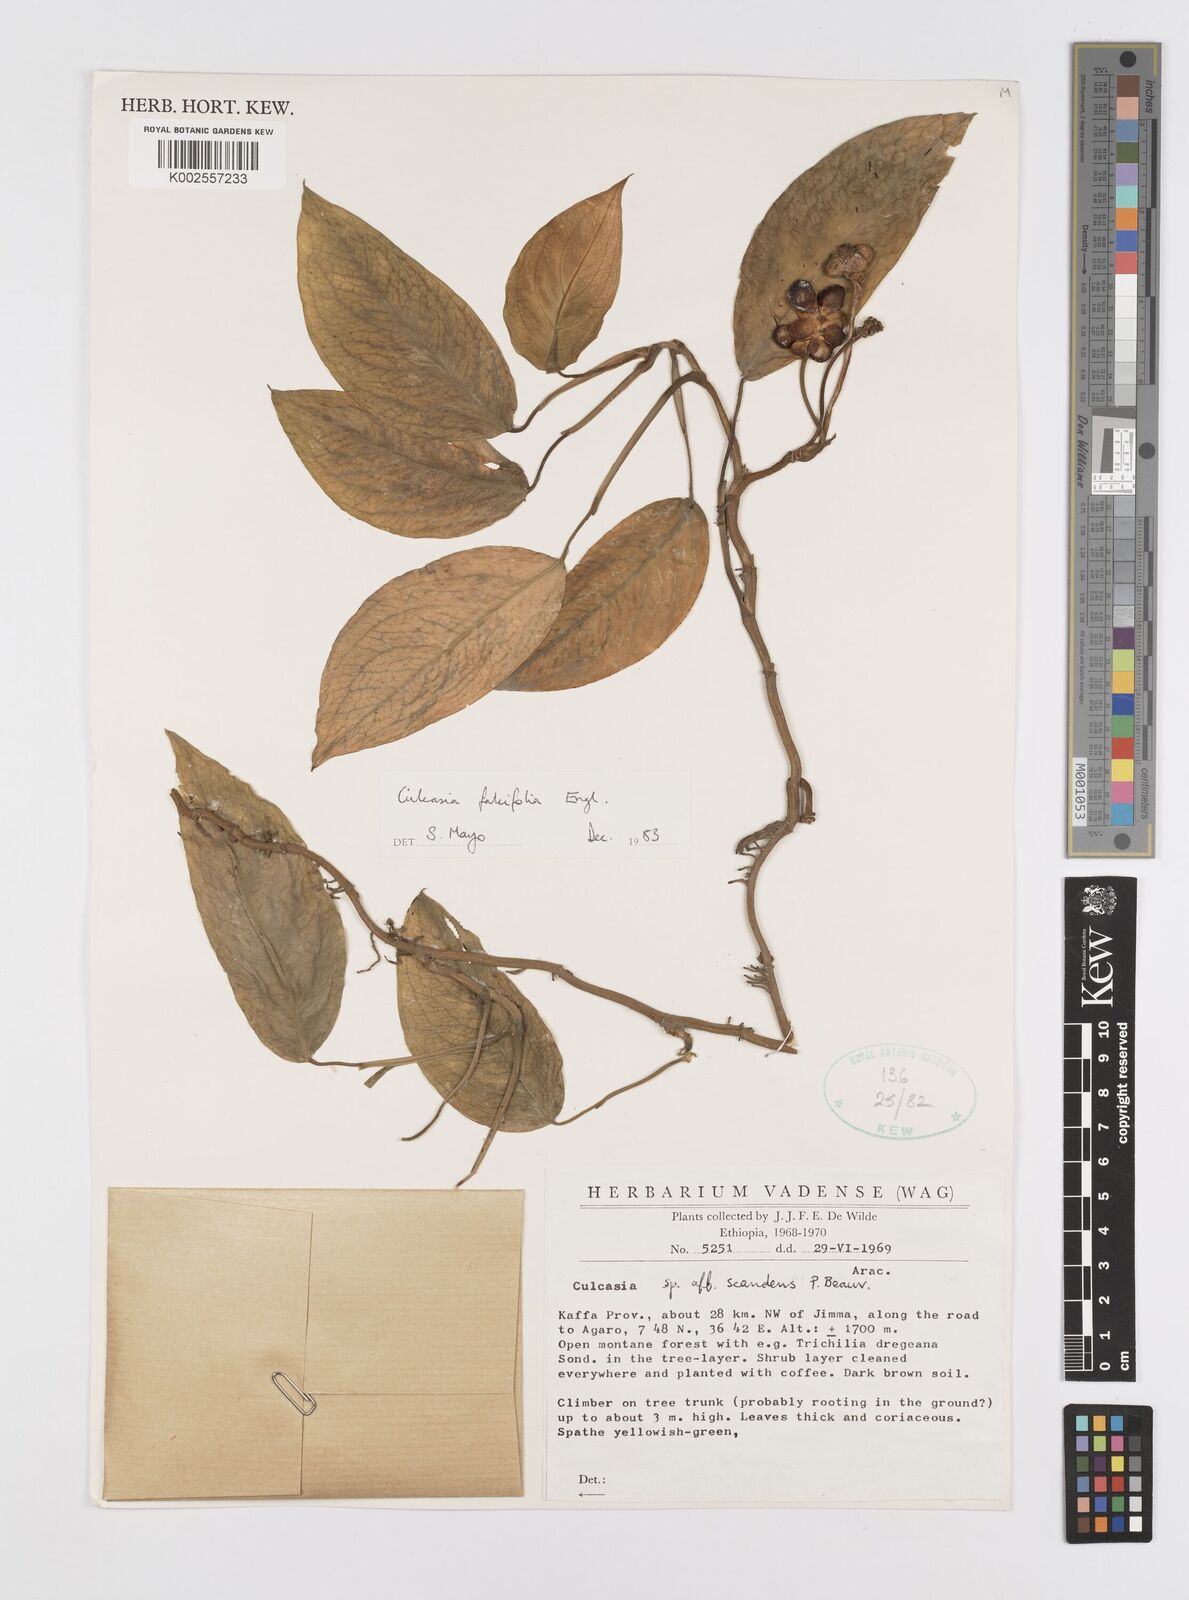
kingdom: Plantae
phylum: Tracheophyta
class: Liliopsida
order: Alismatales
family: Araceae
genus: Culcasia
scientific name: Culcasia falcifolia
